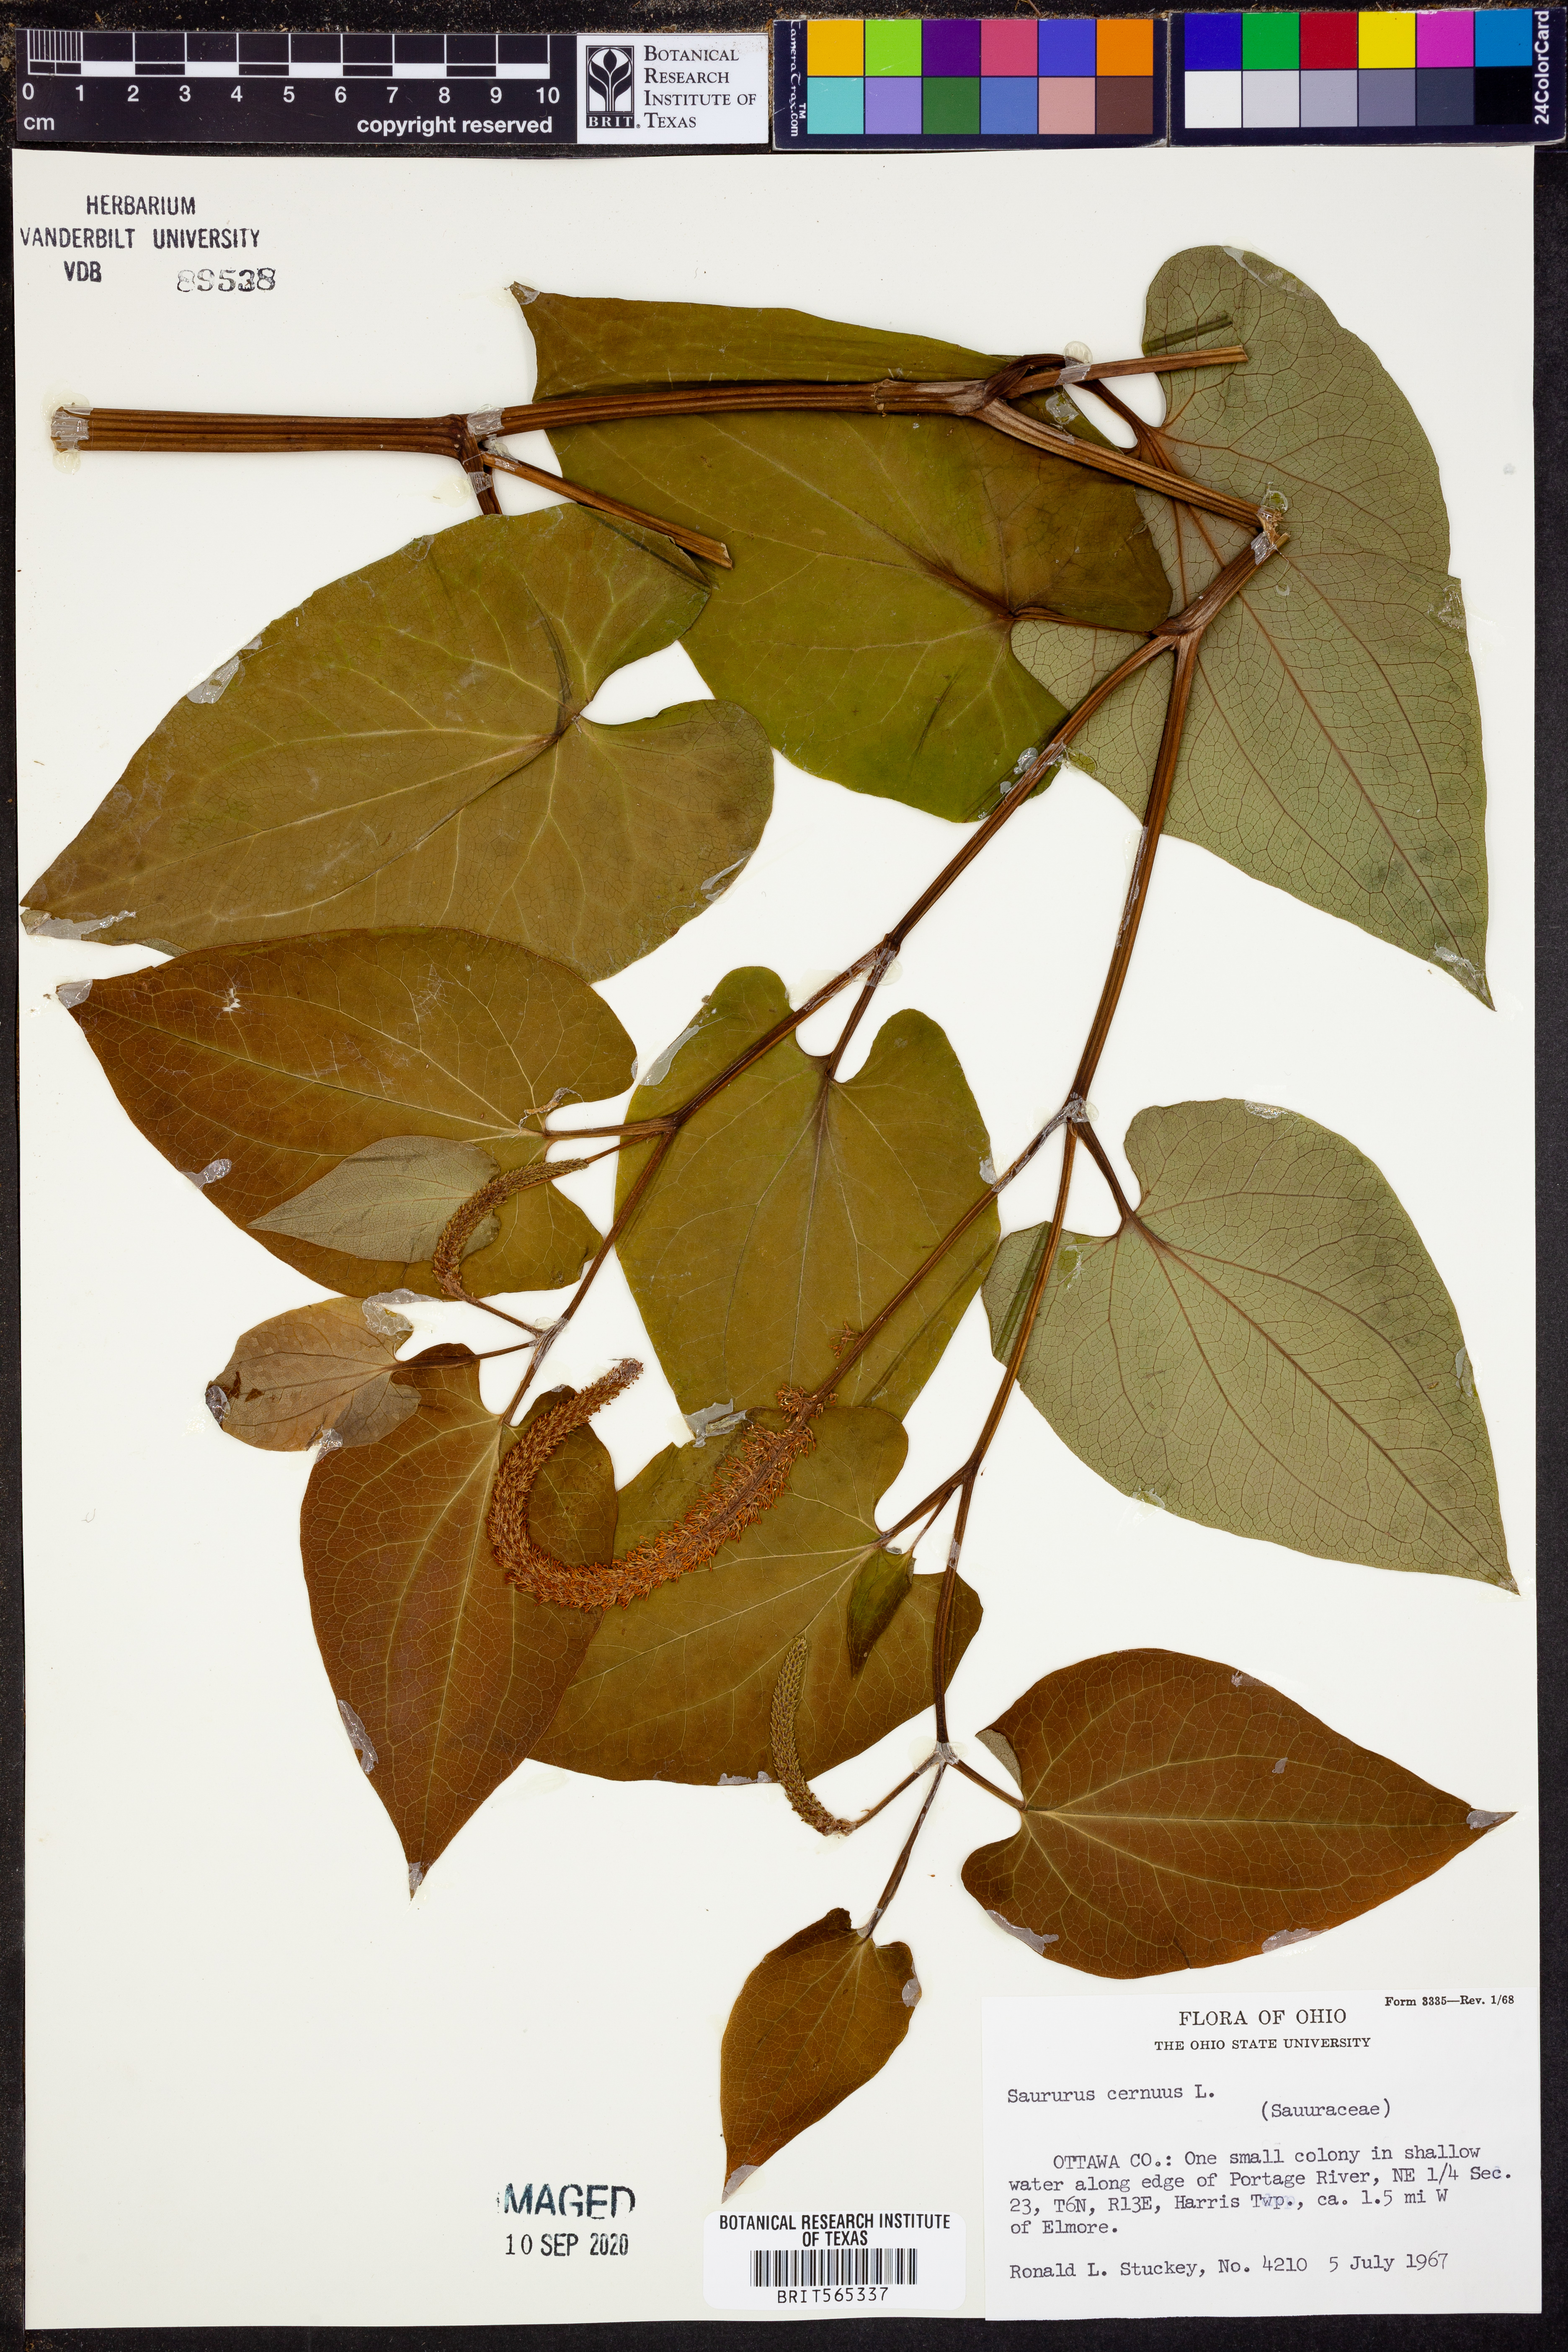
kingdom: Plantae
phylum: Tracheophyta
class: Magnoliopsida
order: Piperales
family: Saururaceae
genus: Saururus
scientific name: Saururus cernuus
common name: Lizard's-tail
